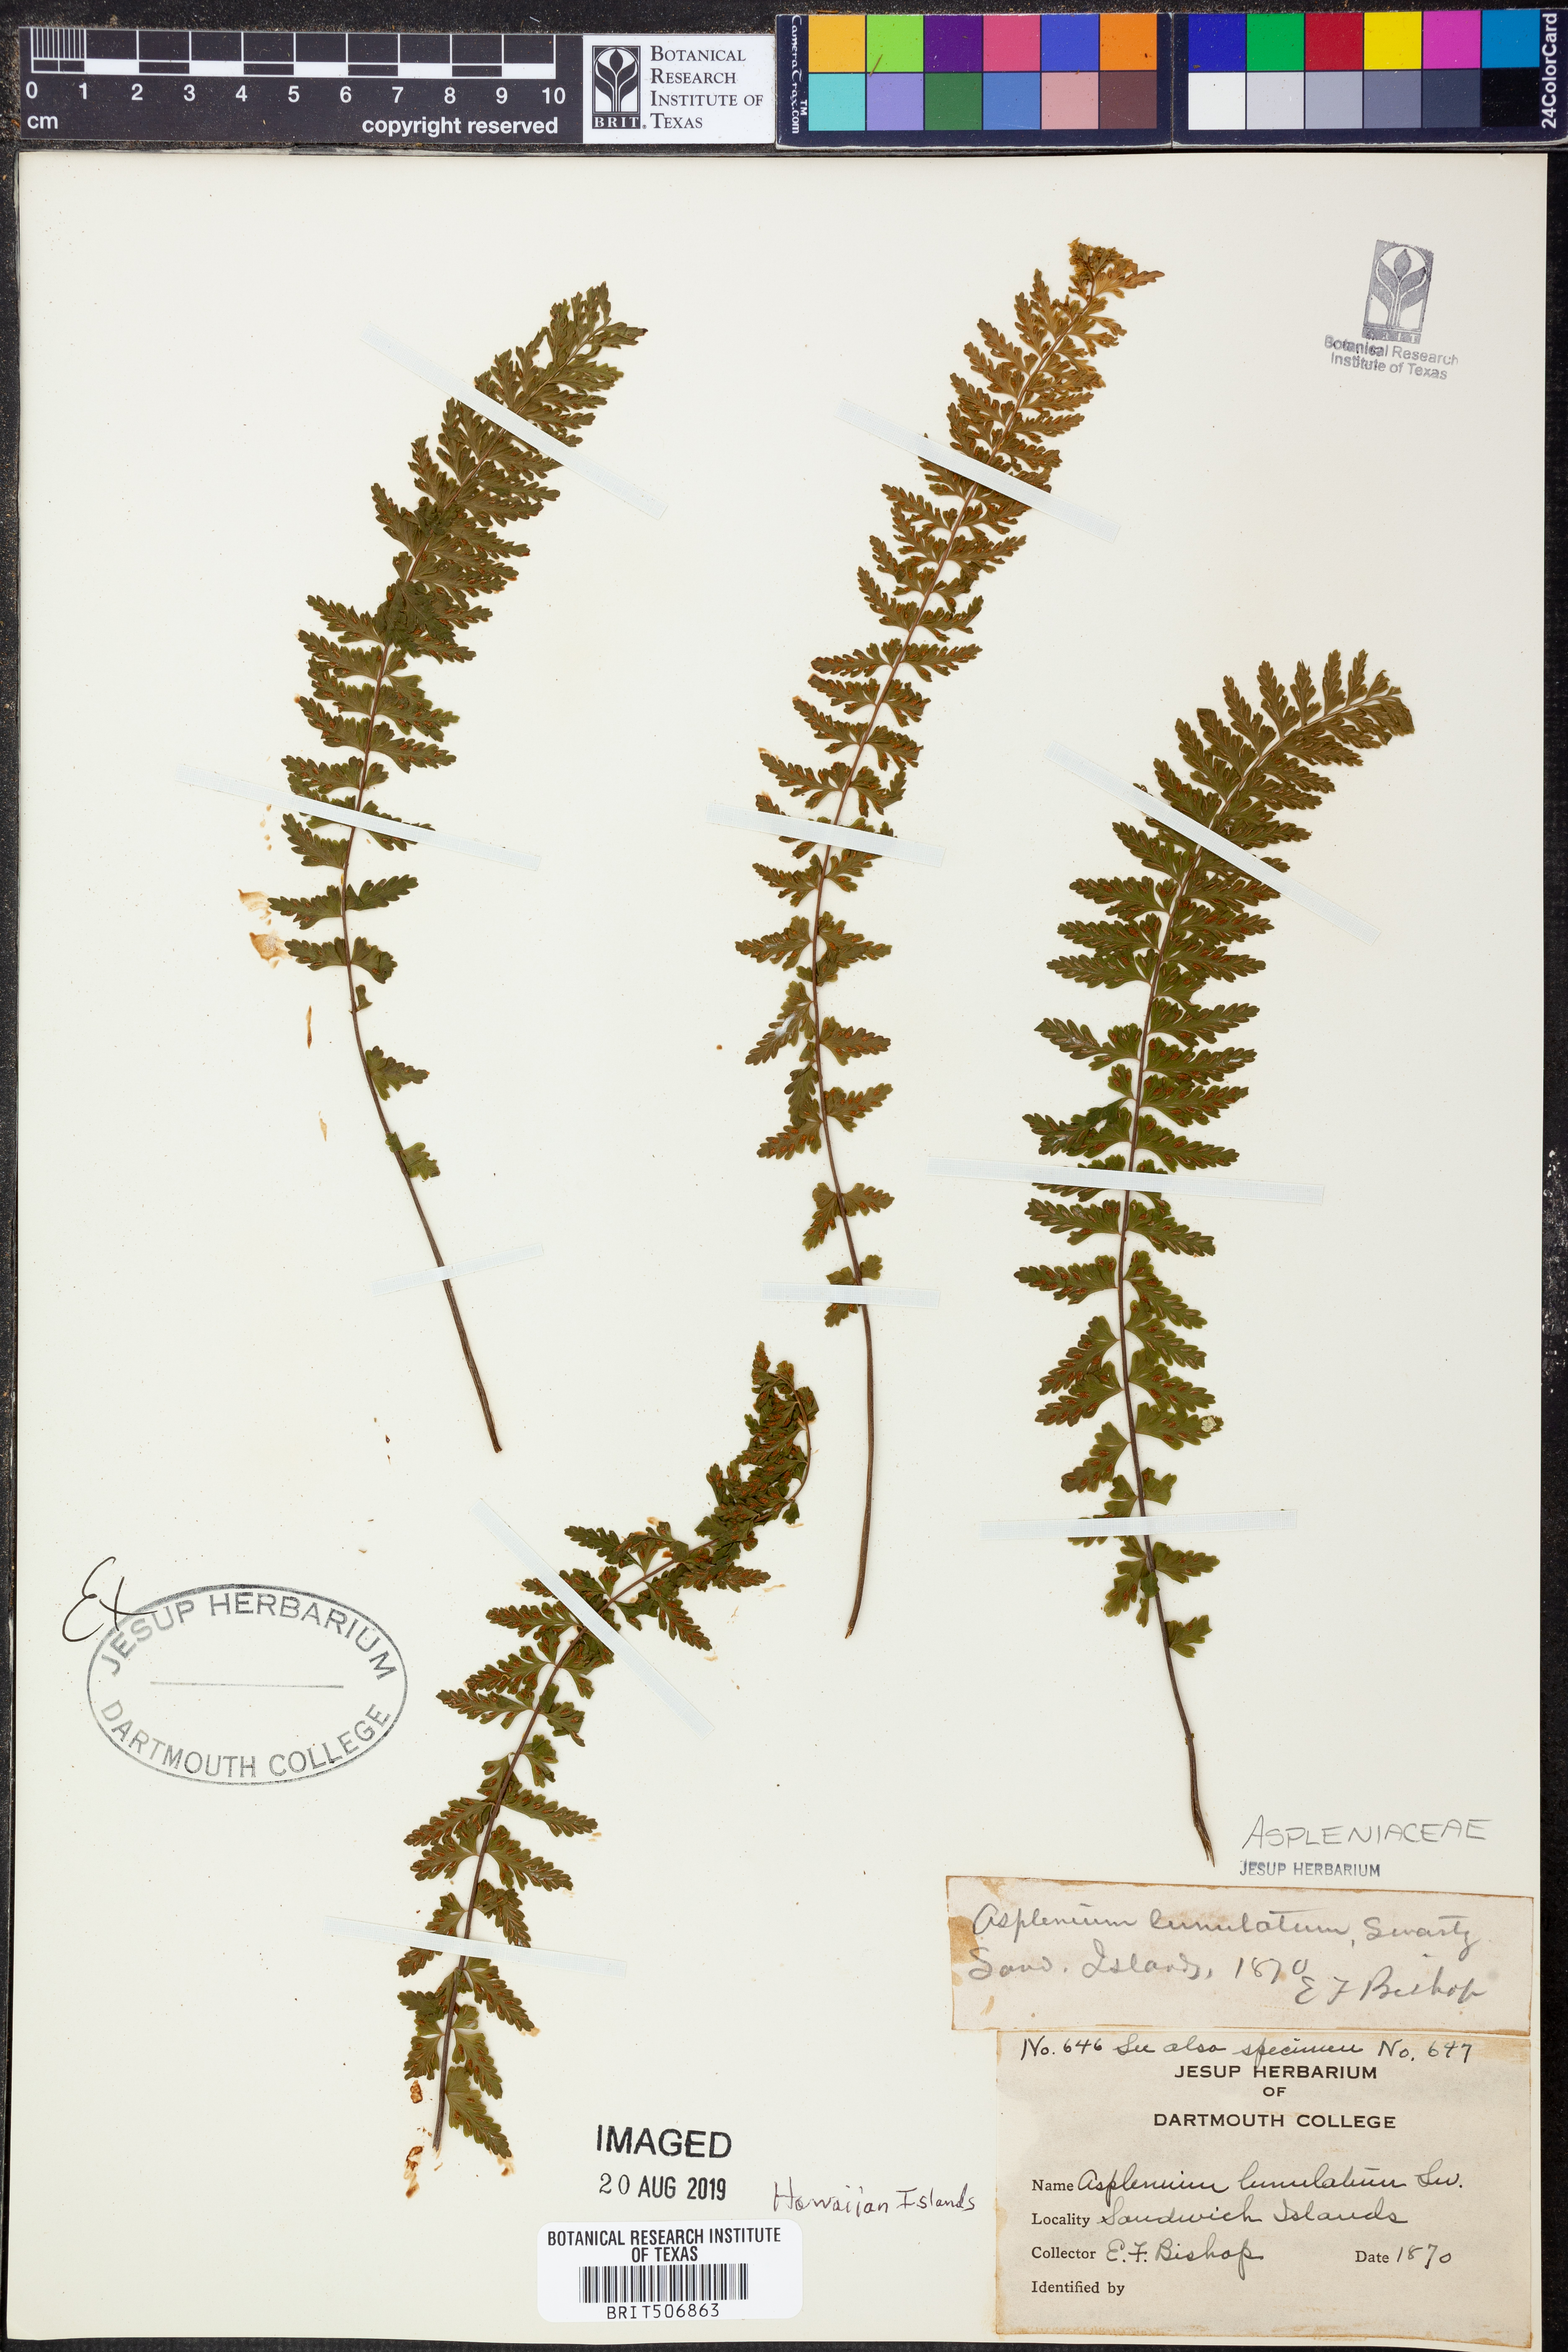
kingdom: Plantae
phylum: Tracheophyta
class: Polypodiopsida
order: Polypodiales
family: Aspleniaceae
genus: Asplenium
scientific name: Asplenium lunulatum
